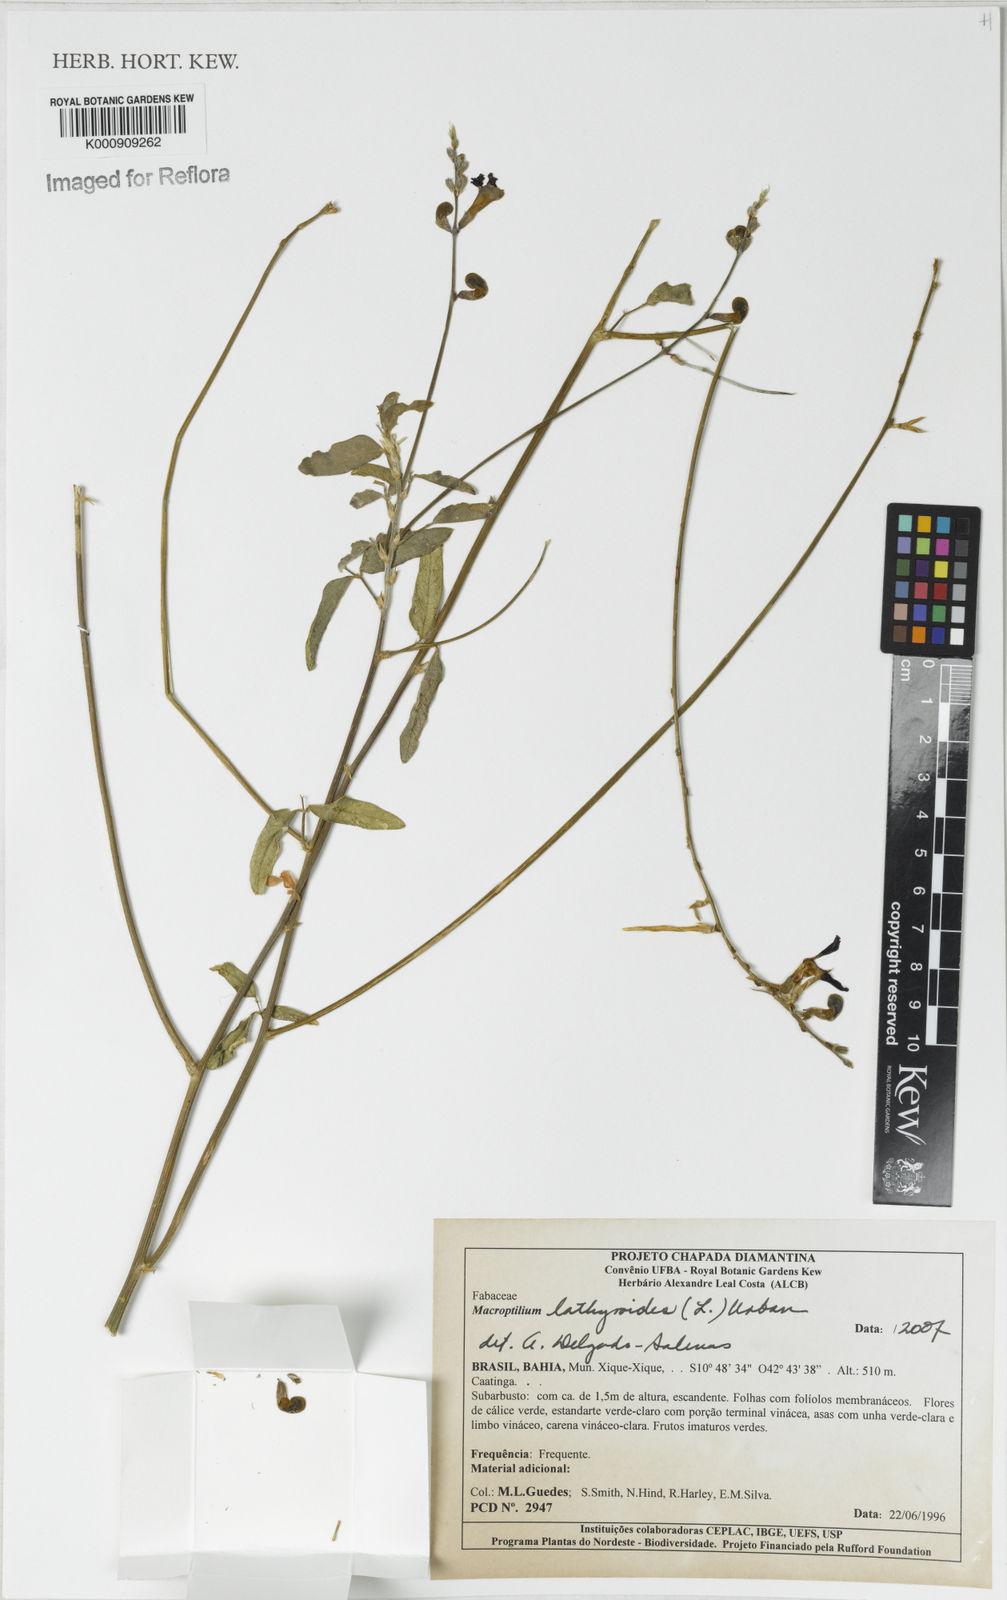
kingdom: Plantae
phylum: Tracheophyta
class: Magnoliopsida
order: Fabales
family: Fabaceae
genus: Macroptilium
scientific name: Macroptilium lathyroides
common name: Wild bushbean
